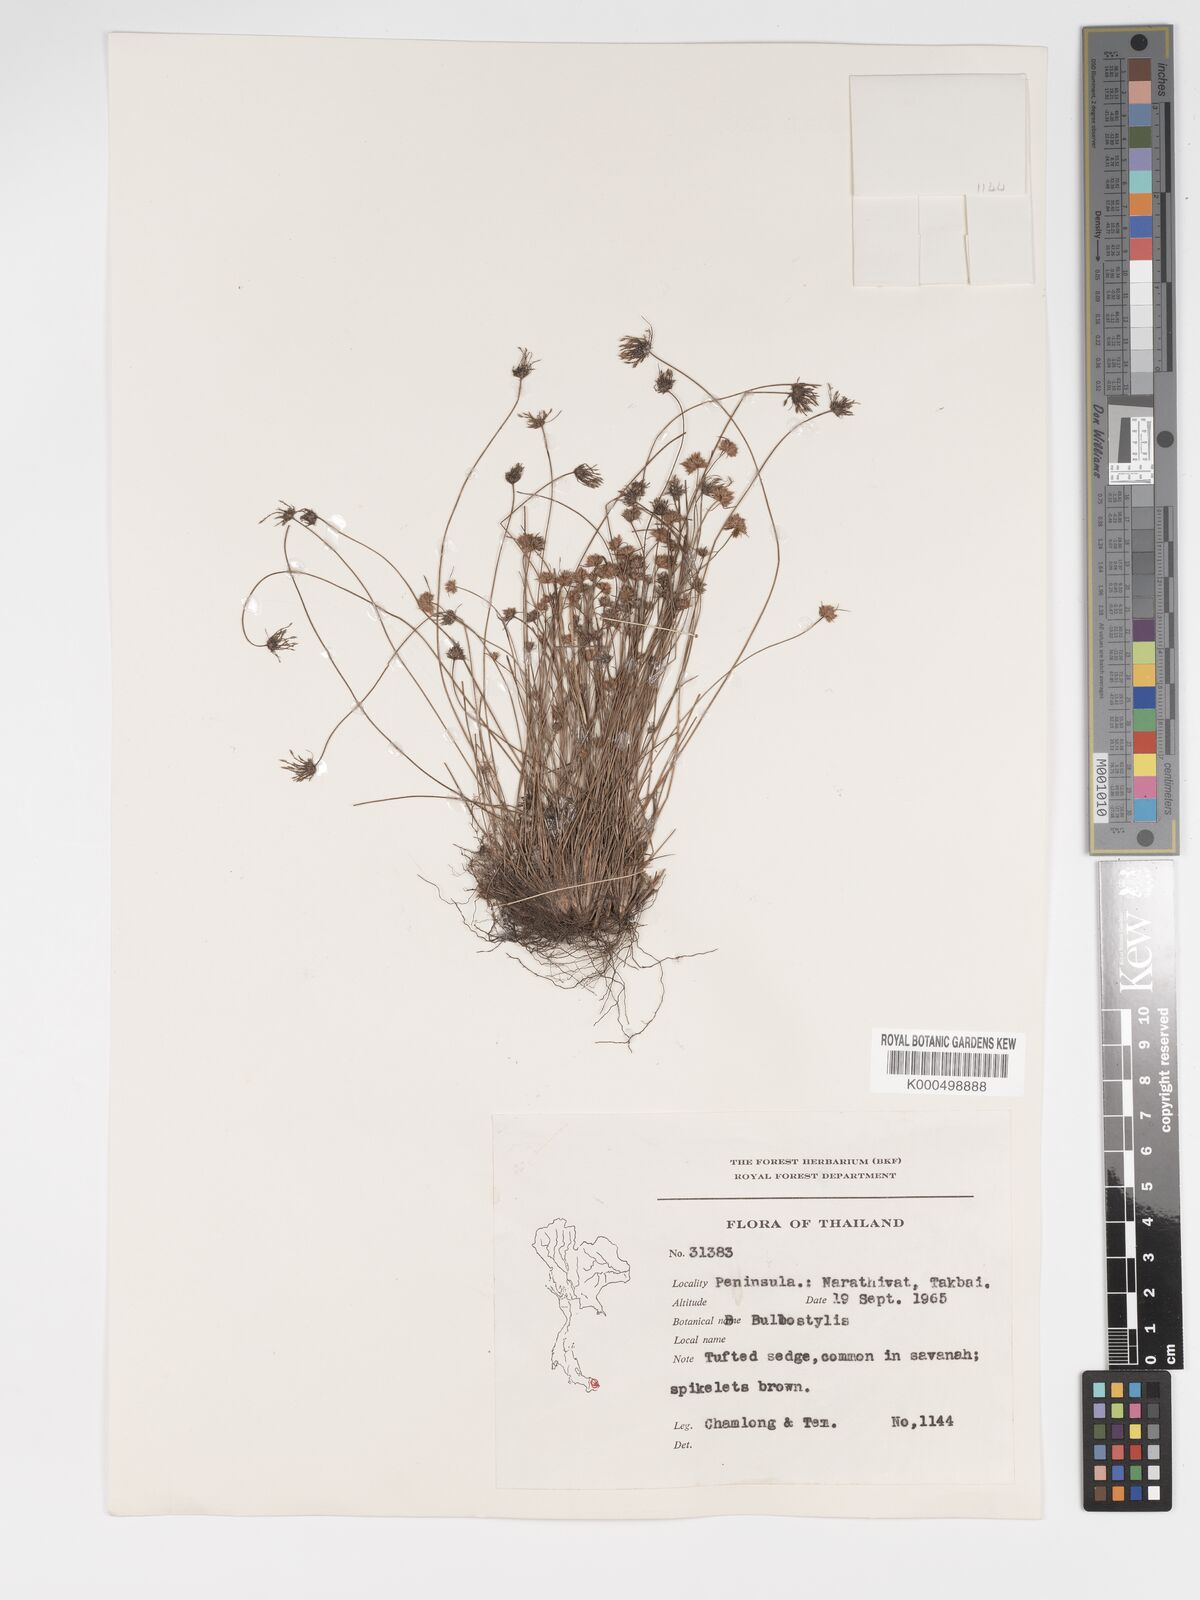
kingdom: Plantae
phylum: Tracheophyta
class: Liliopsida
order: Poales
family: Cyperaceae
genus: Bulbostylis
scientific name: Bulbostylis barbata
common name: Watergrass
